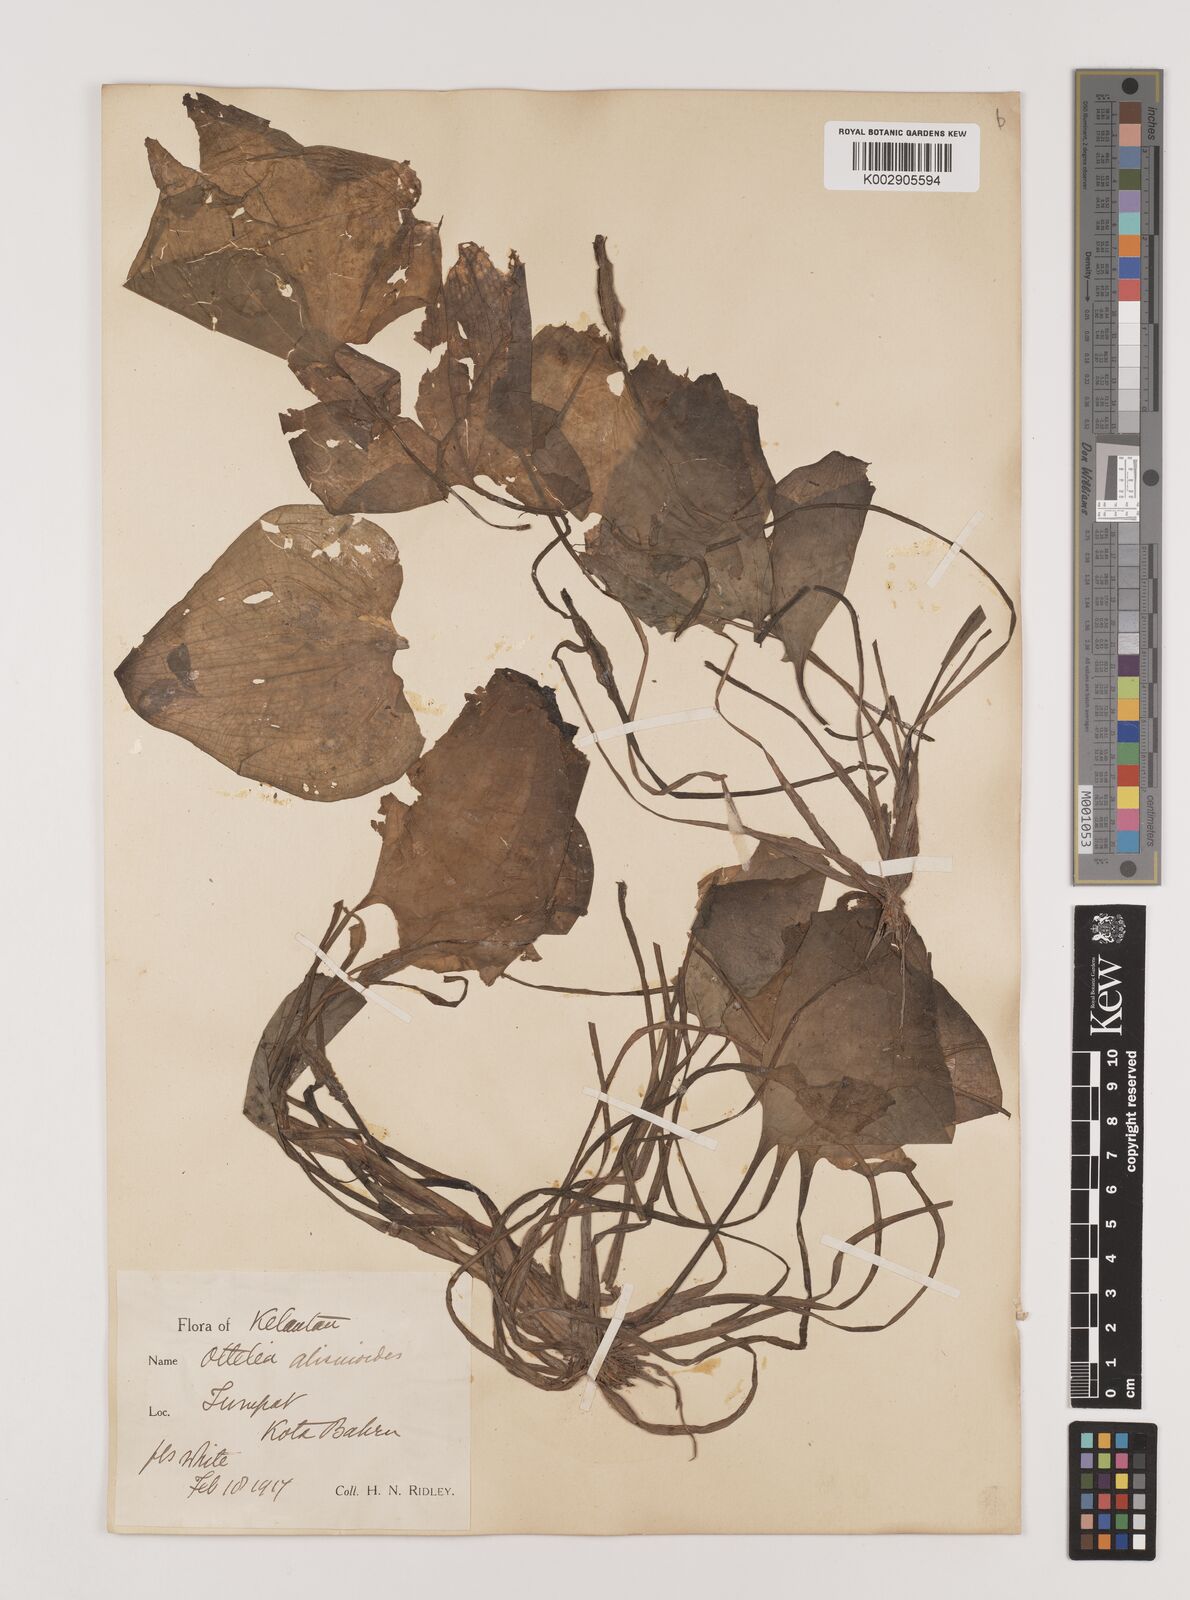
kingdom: Plantae
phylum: Tracheophyta
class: Liliopsida
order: Alismatales
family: Hydrocharitaceae
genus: Ottelia
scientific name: Ottelia alismoides
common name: Duck-lettuce
